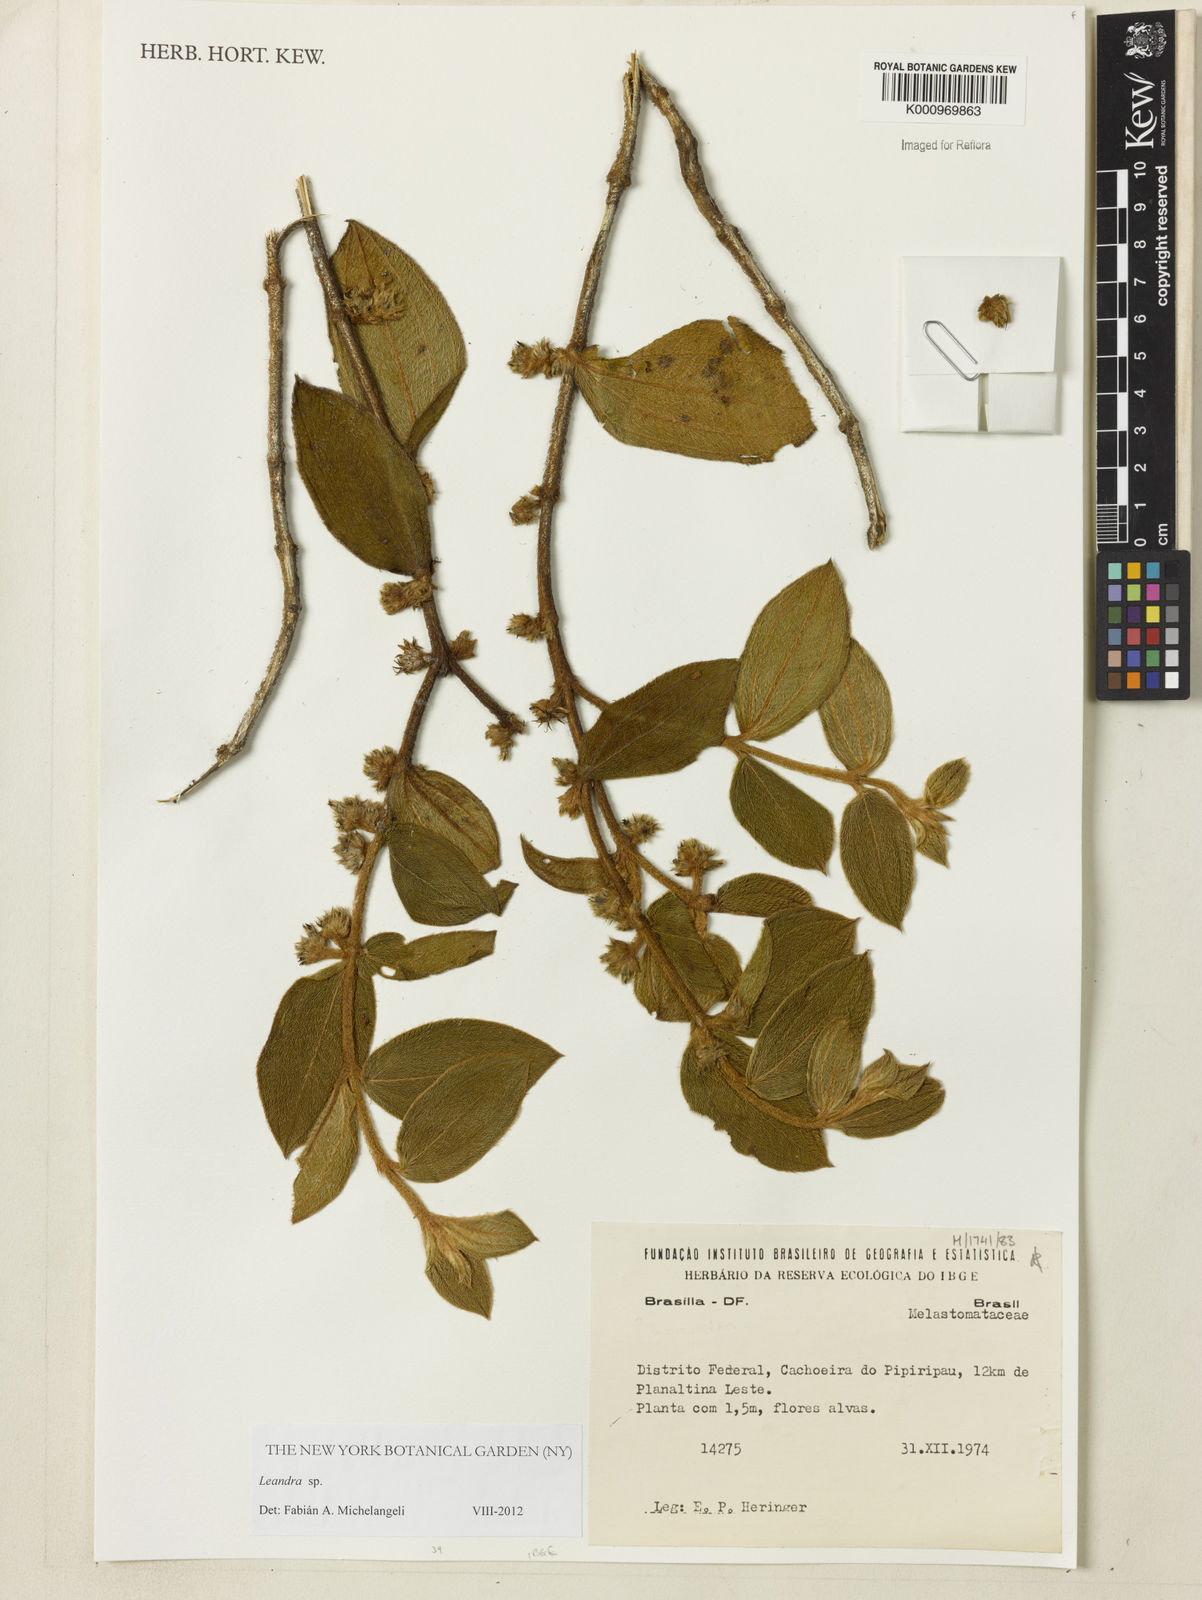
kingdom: Plantae
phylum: Tracheophyta
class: Magnoliopsida
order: Myrtales
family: Melastomataceae
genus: Miconia
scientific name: Miconia
